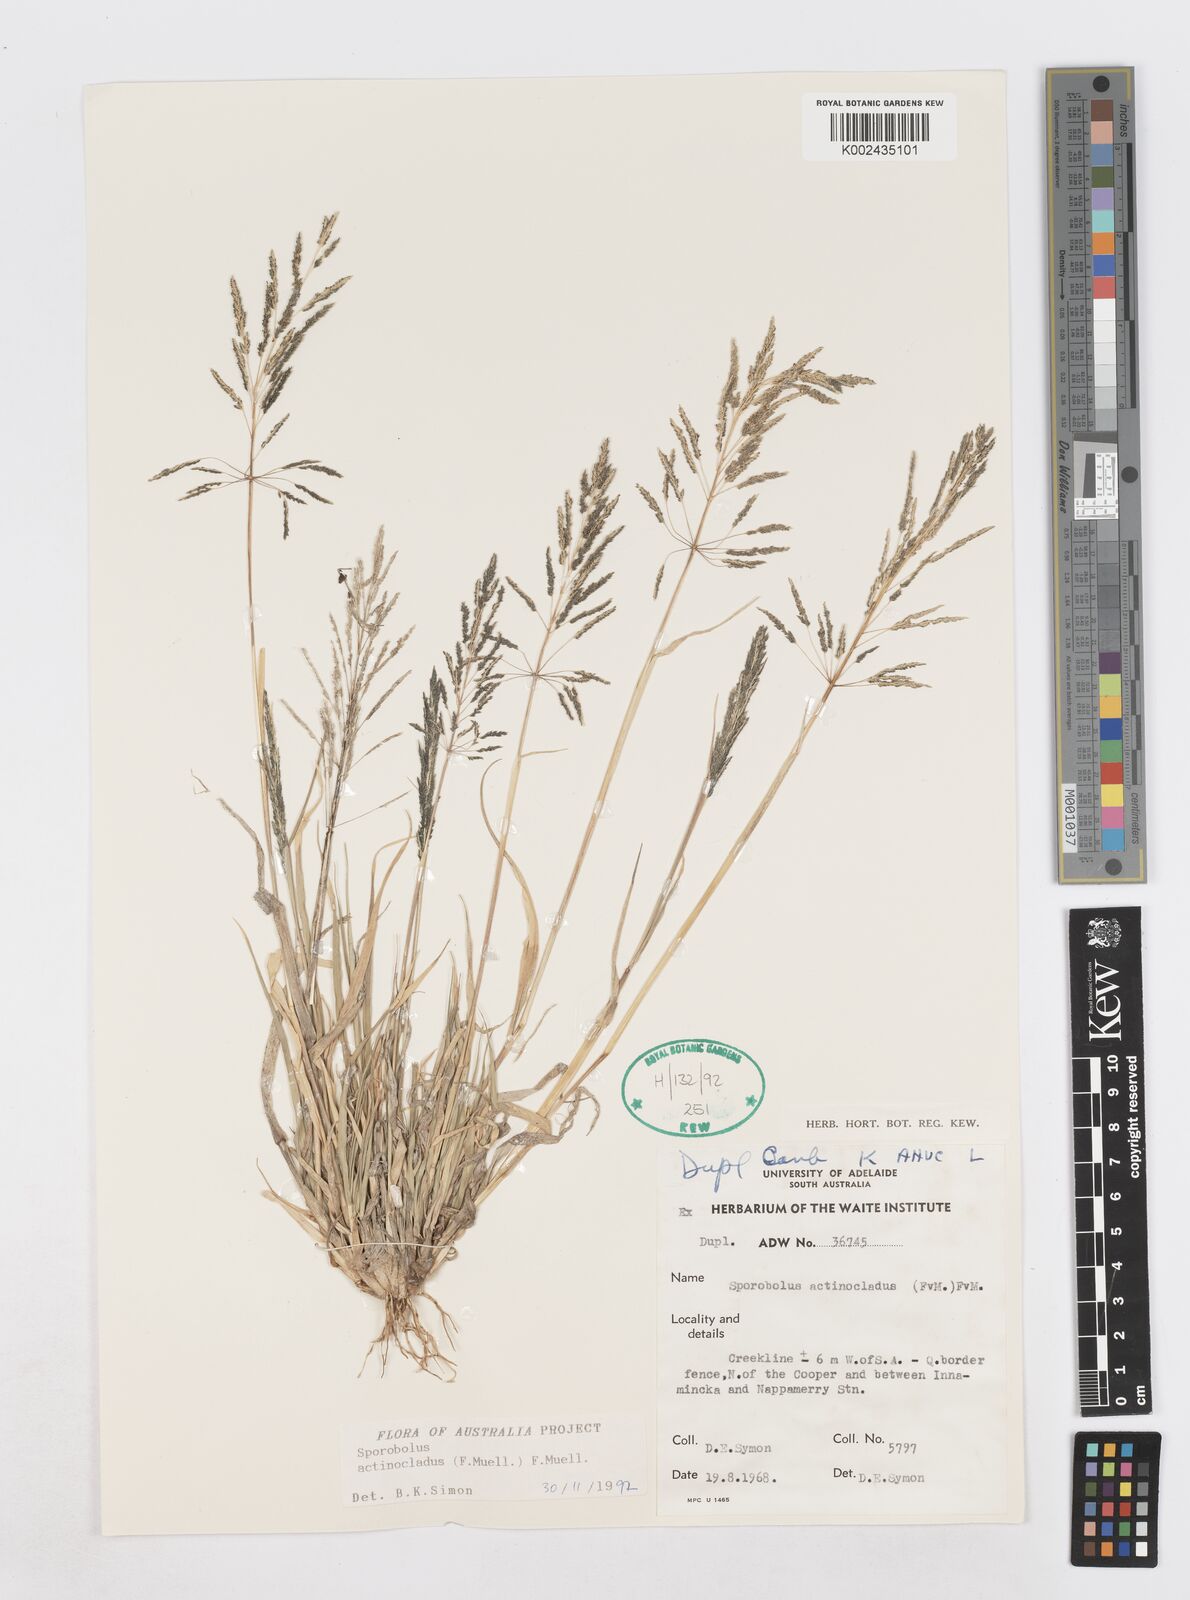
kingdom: Plantae
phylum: Tracheophyta
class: Liliopsida
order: Poales
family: Poaceae
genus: Sporobolus
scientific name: Sporobolus actinocladus
